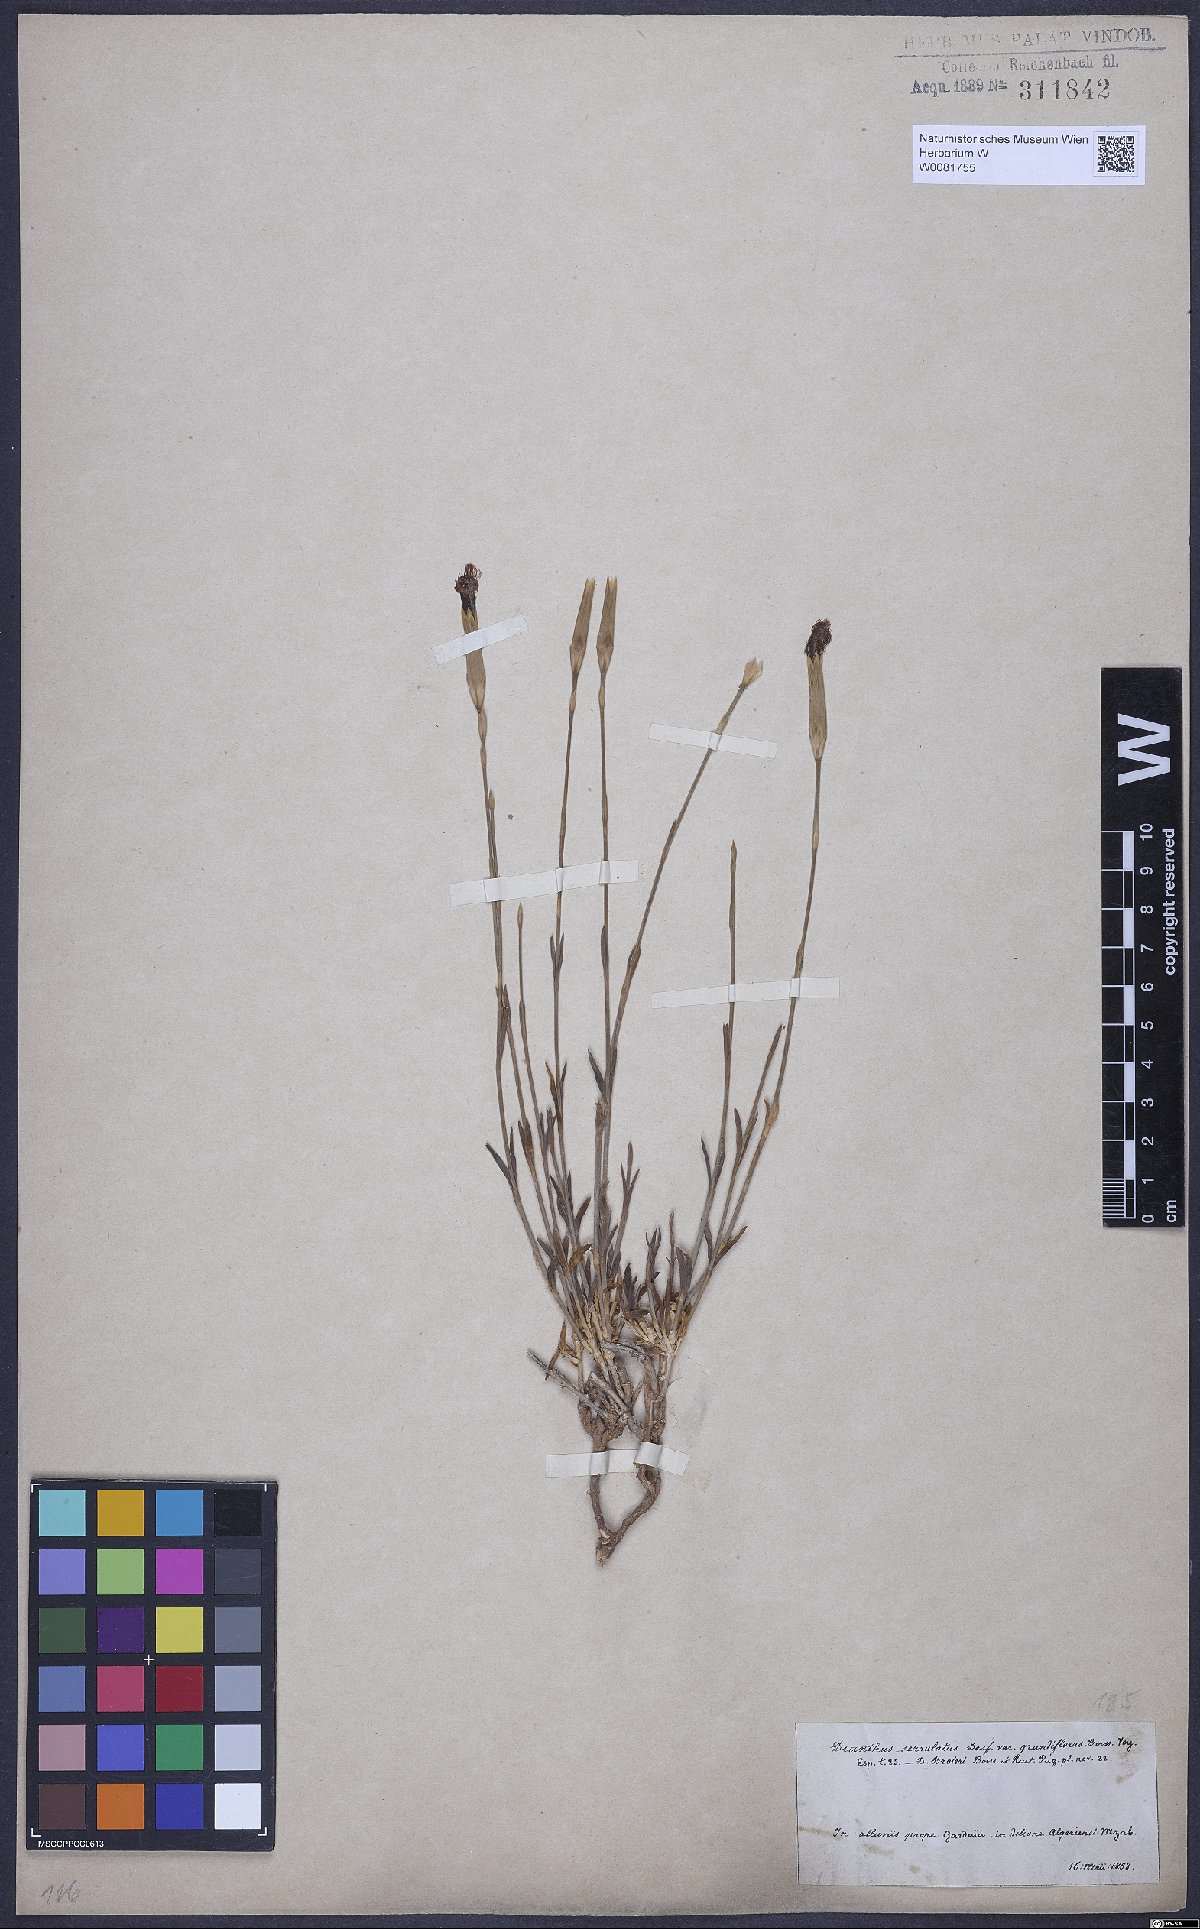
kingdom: Plantae
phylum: Tracheophyta
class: Magnoliopsida
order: Caryophyllales
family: Caryophyllaceae
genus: Dianthus
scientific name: Dianthus broteri
